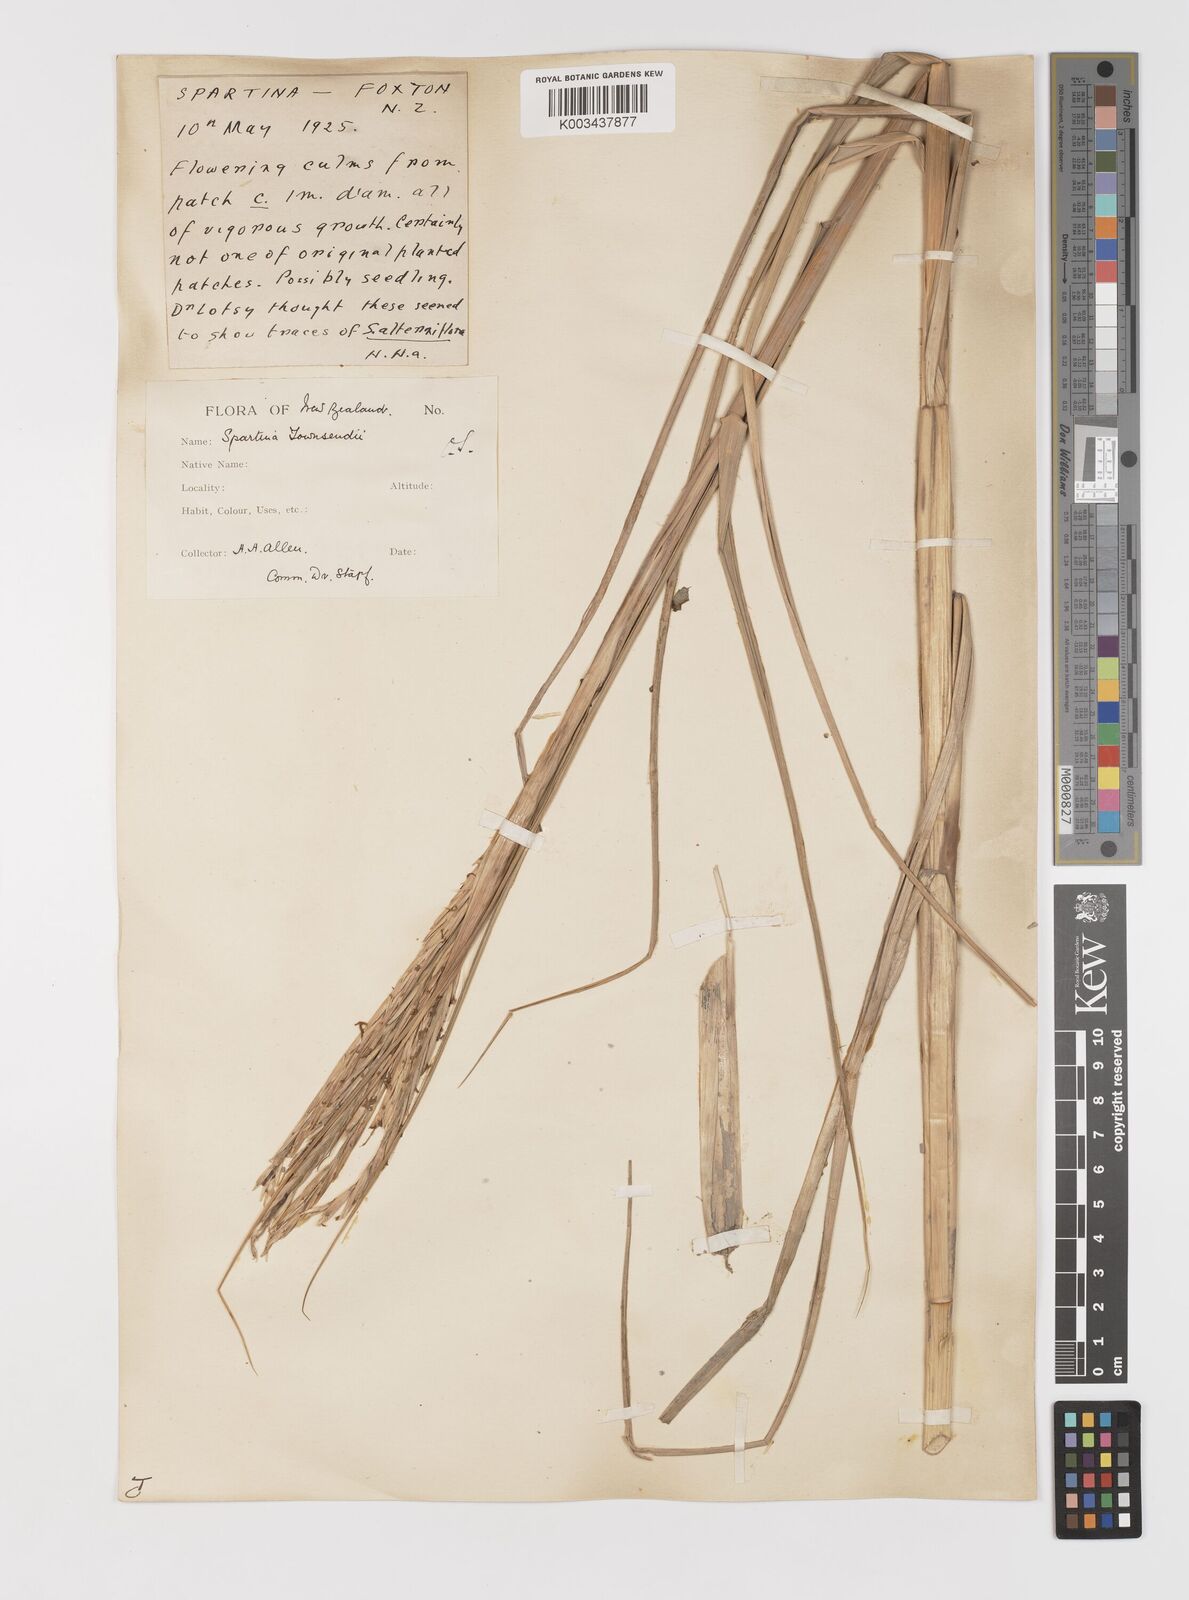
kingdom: Plantae
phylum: Tracheophyta
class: Liliopsida
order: Poales
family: Poaceae
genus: Sporobolus
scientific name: Sporobolus townsendii
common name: Townsend's cordgrass
